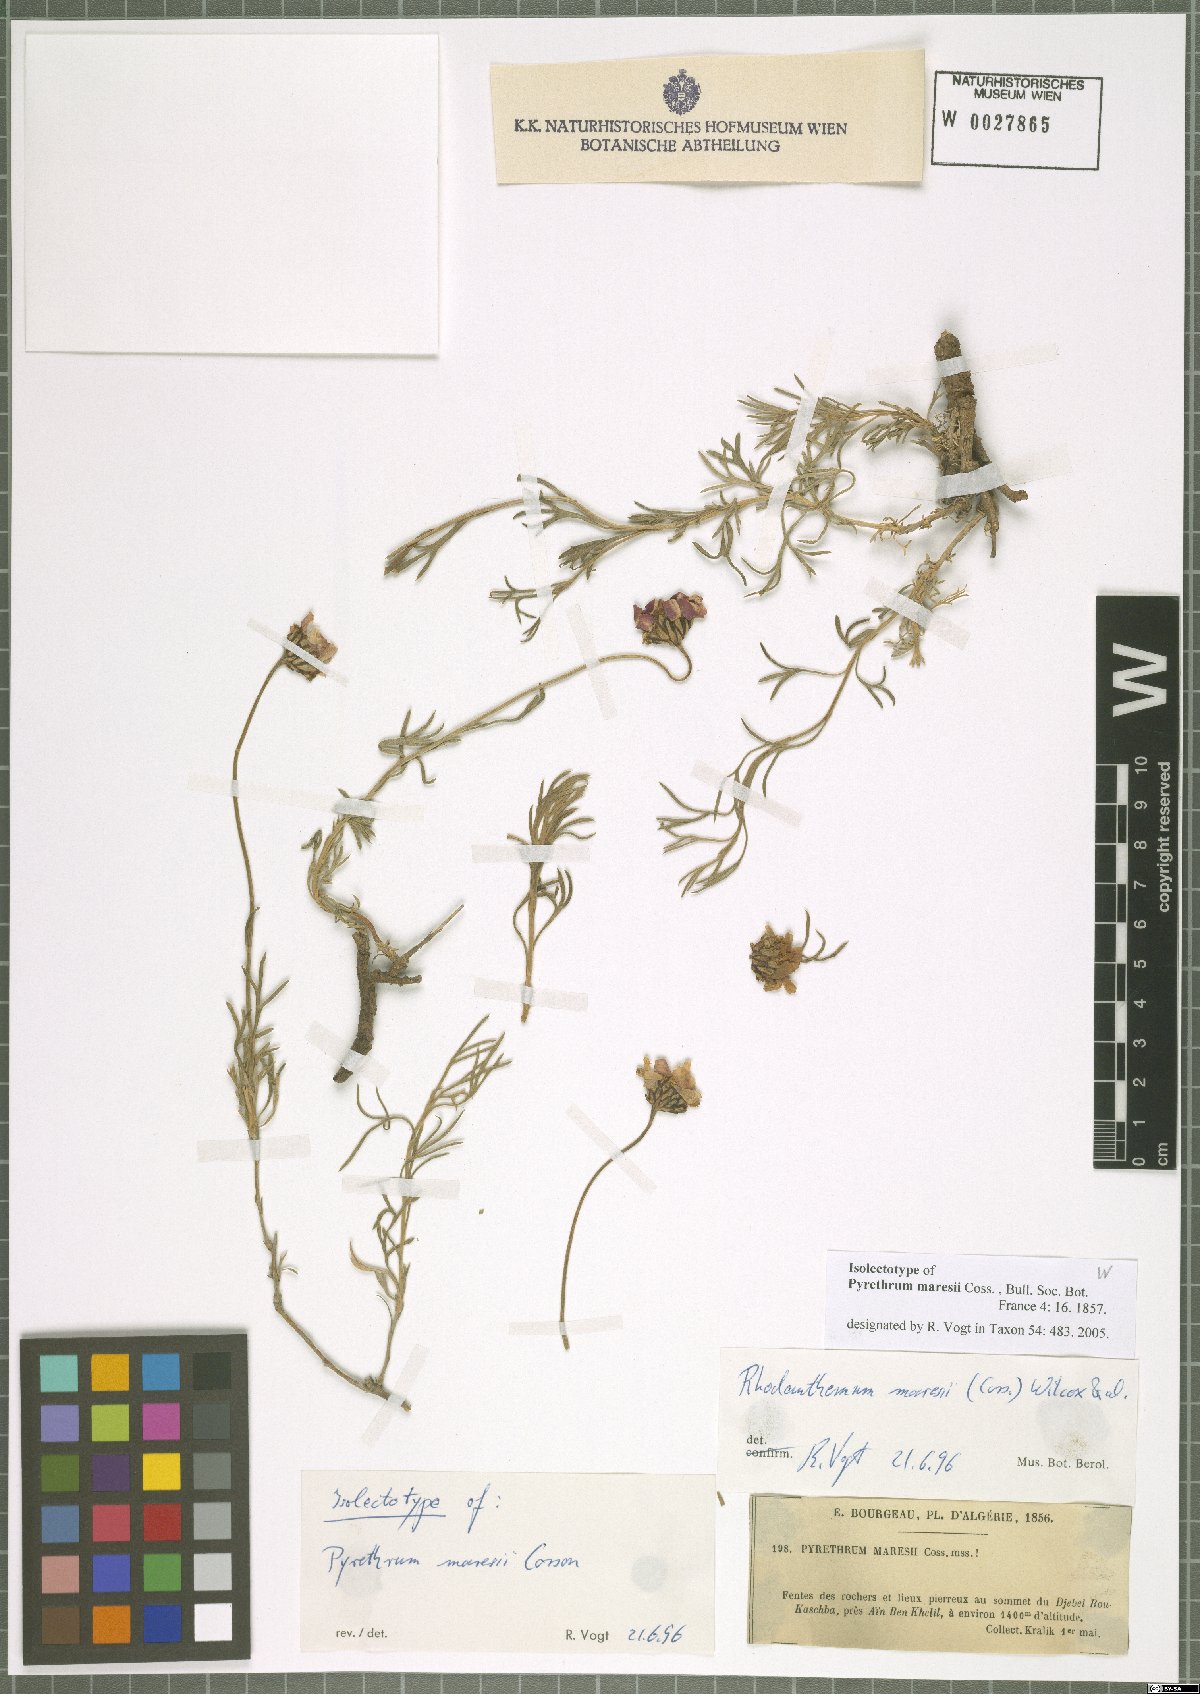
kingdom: Plantae
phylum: Tracheophyta
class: Magnoliopsida
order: Asterales
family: Asteraceae
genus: Rhodanthemum
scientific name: Rhodanthemum maresii
